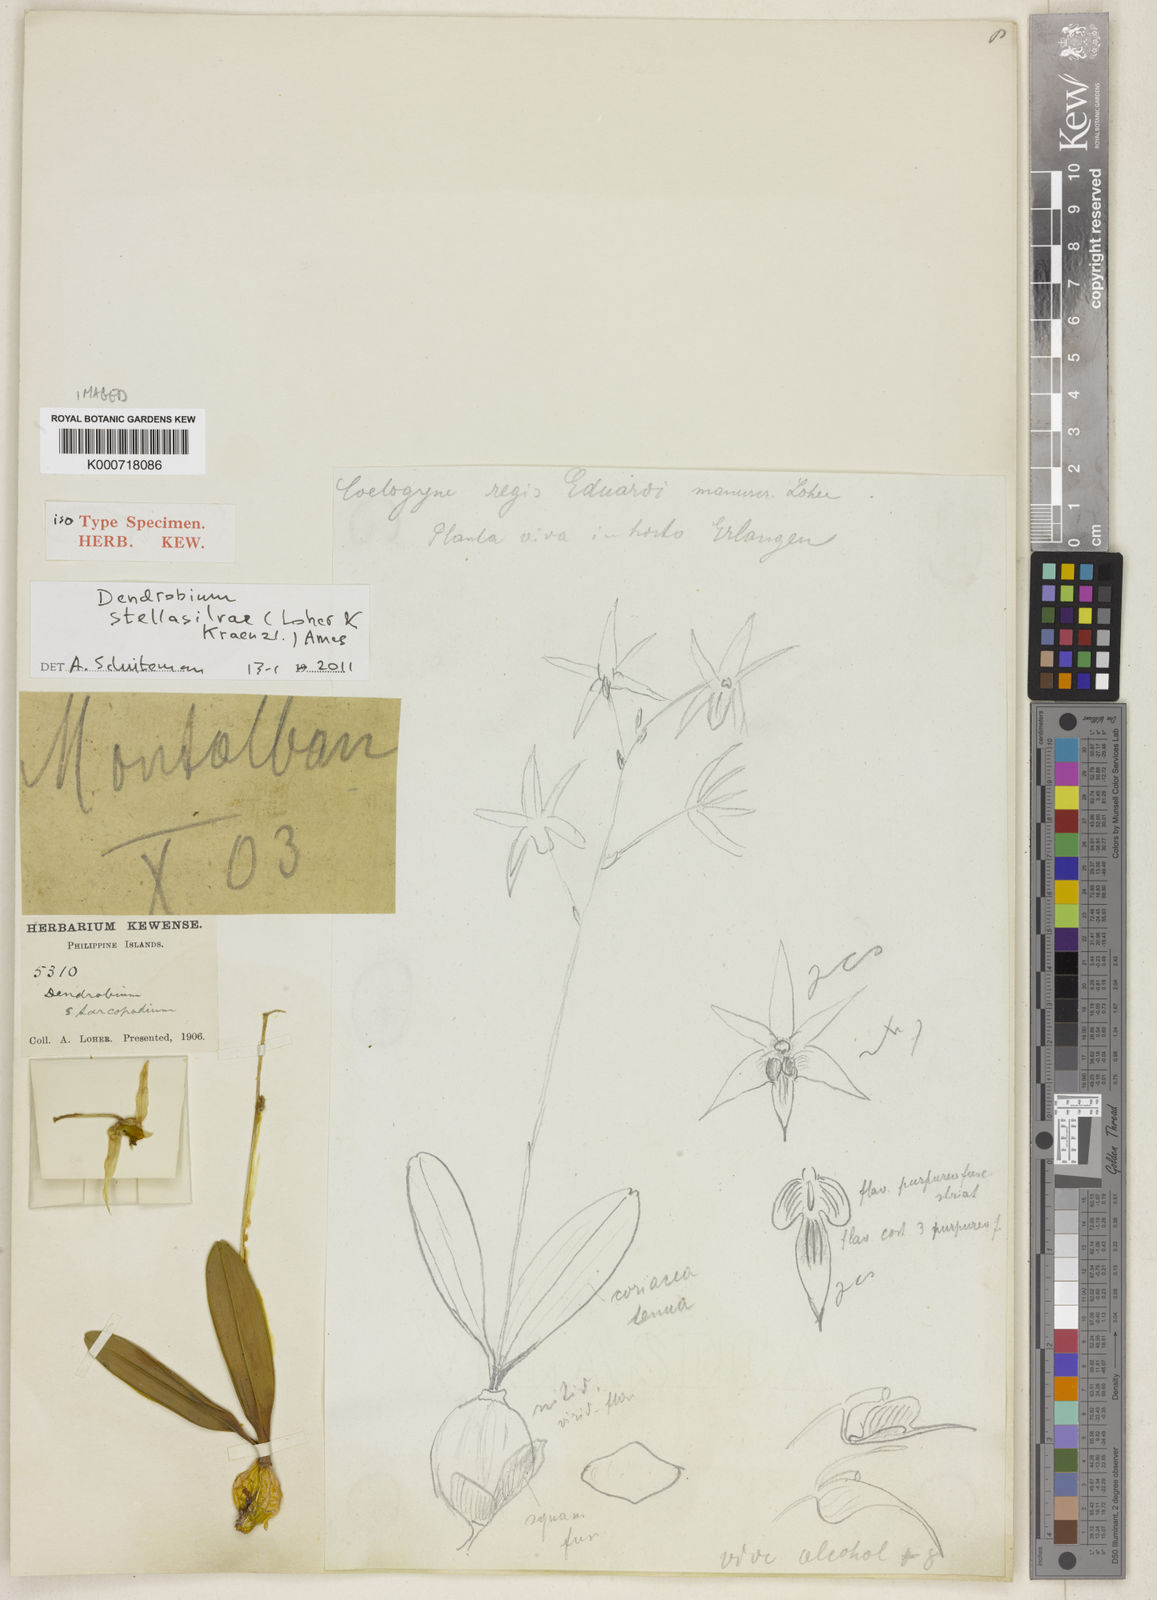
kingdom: Plantae
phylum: Tracheophyta
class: Liliopsida
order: Asparagales
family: Orchidaceae
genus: Dendrobium
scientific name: Dendrobium aratriferum
